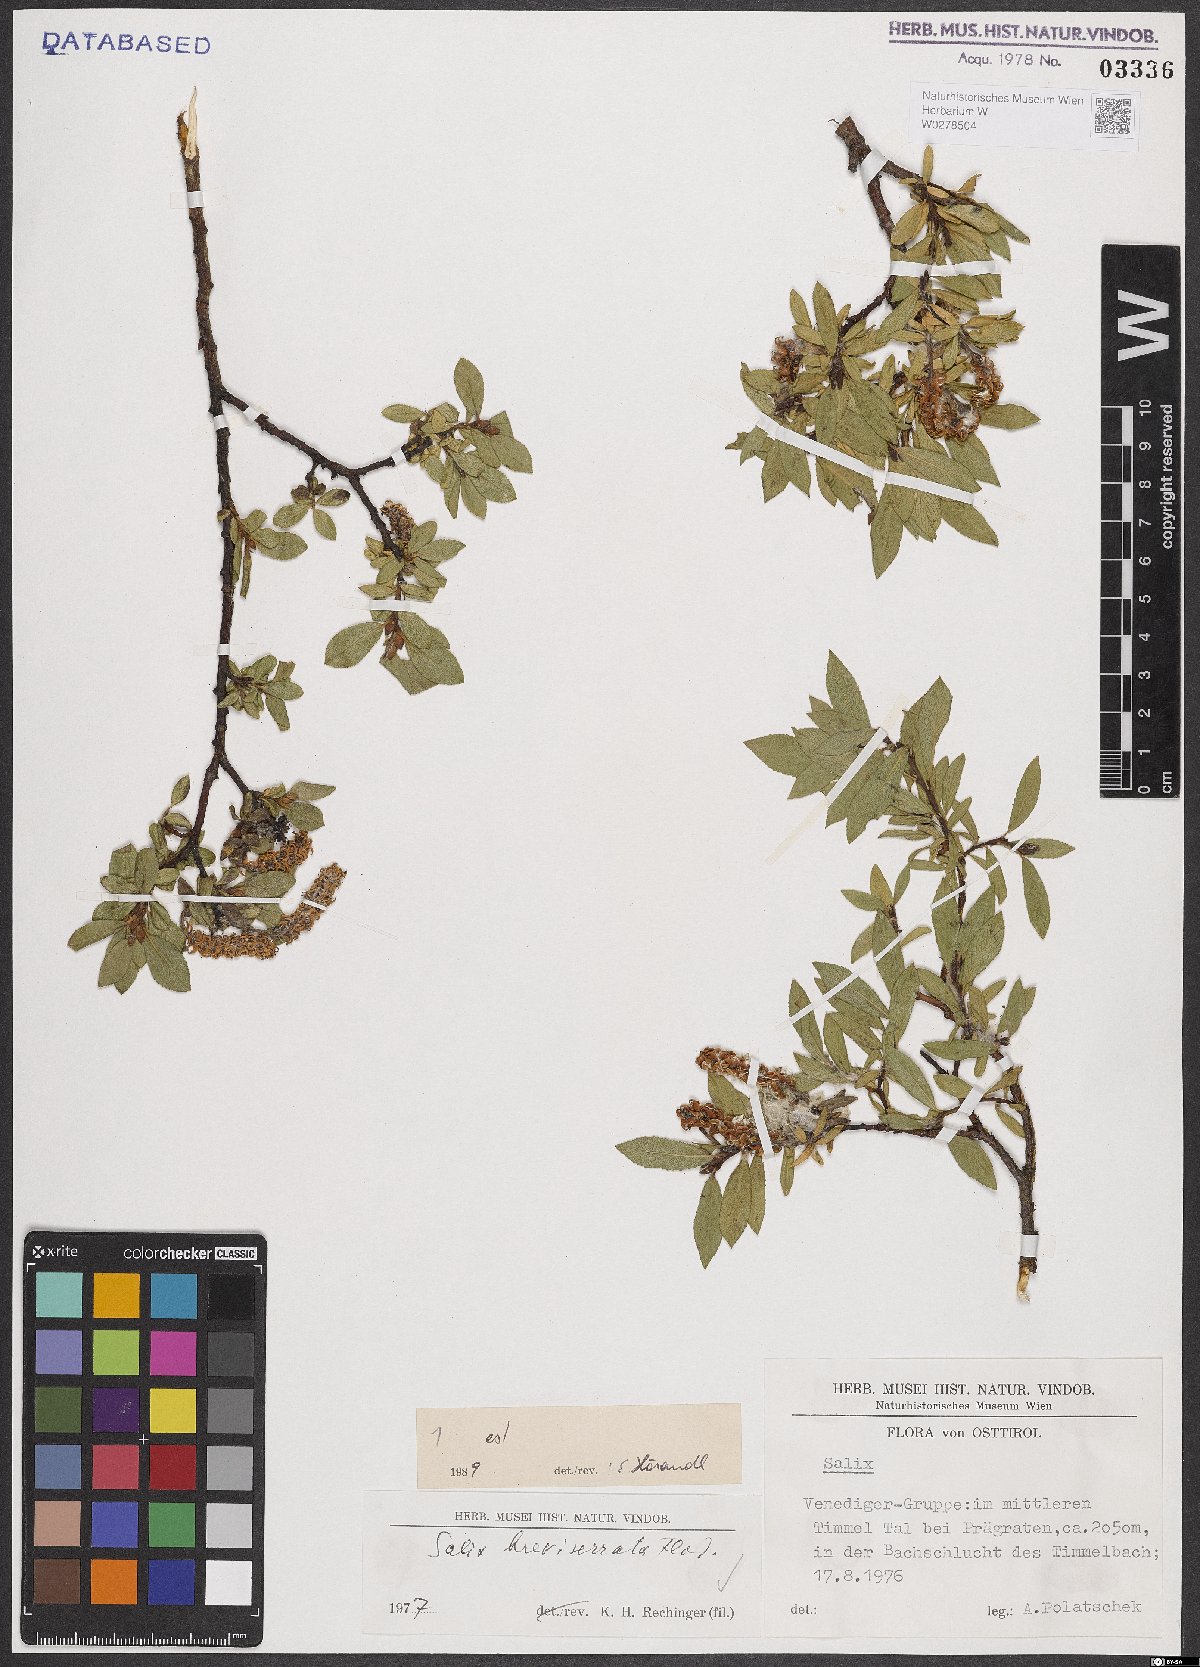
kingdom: Plantae
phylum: Tracheophyta
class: Magnoliopsida
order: Malpighiales
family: Salicaceae
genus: Salix
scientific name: Salix breviserrata
